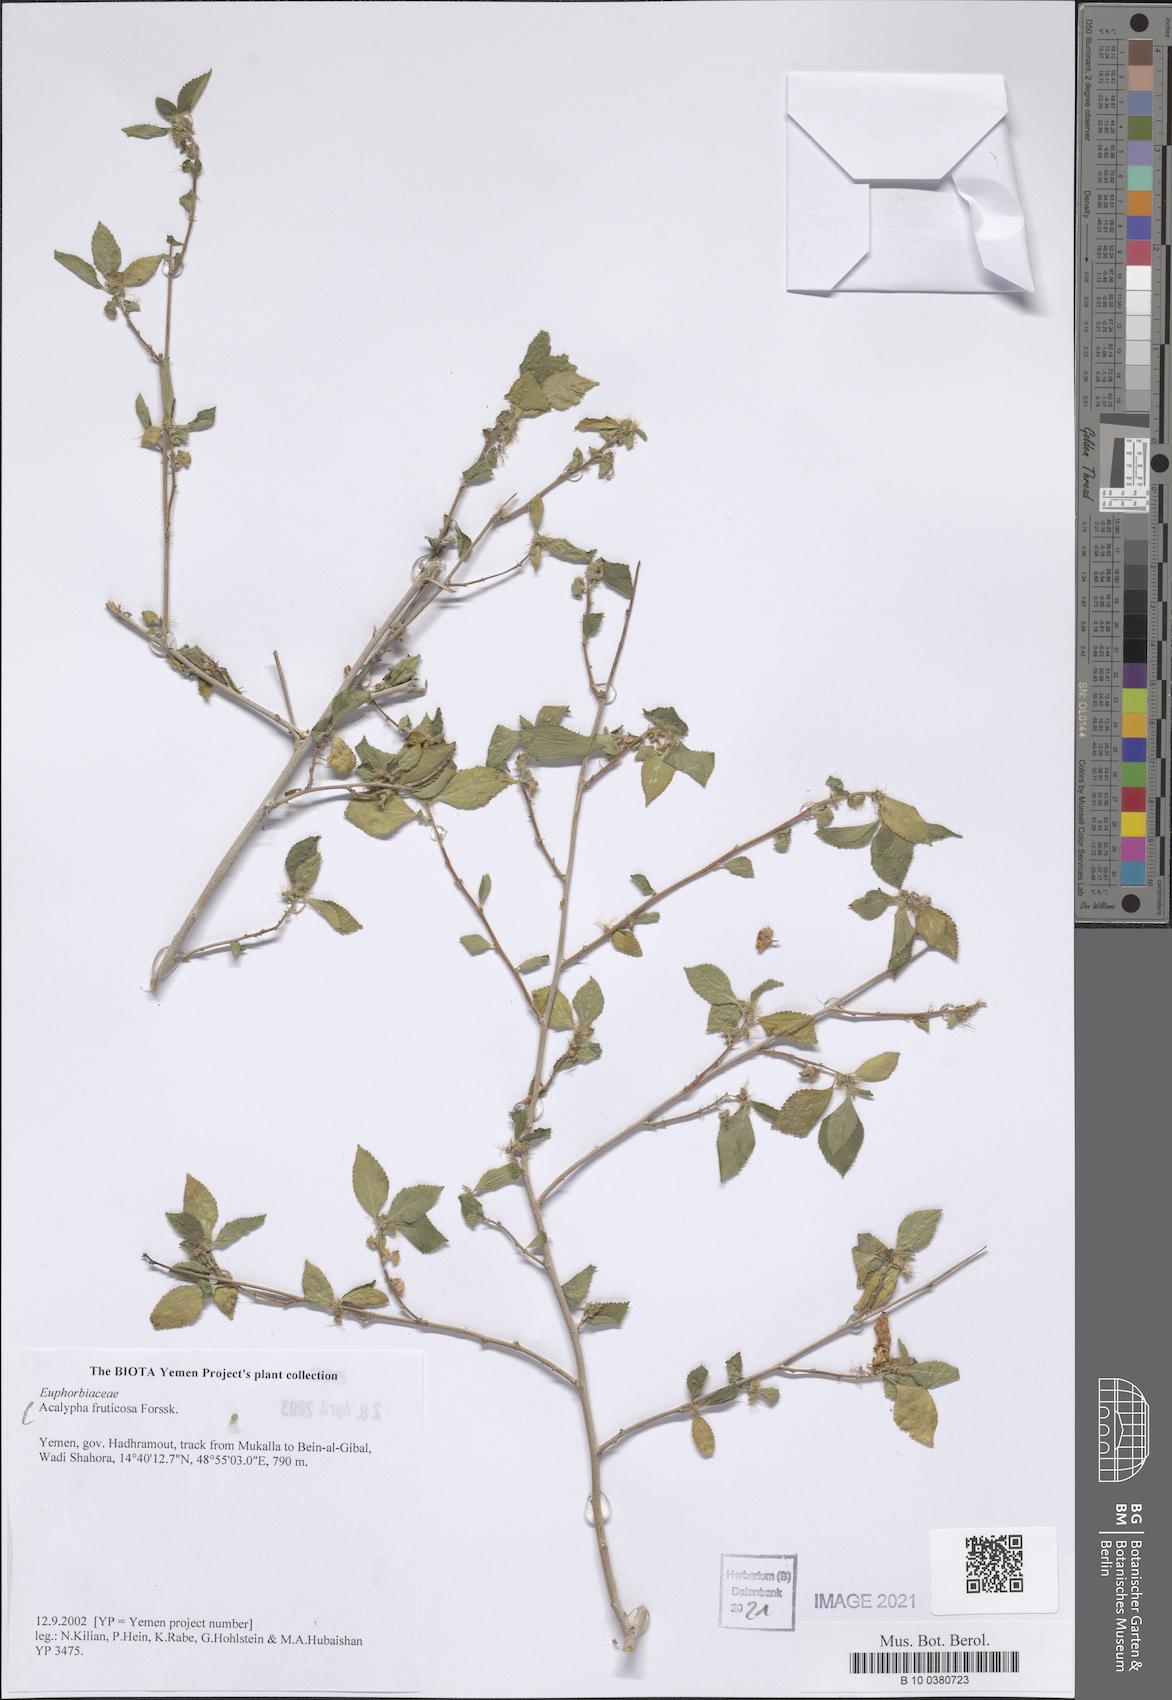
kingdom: Plantae
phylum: Tracheophyta
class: Magnoliopsida
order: Malpighiales
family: Euphorbiaceae
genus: Acalypha
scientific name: Acalypha fruticosa
